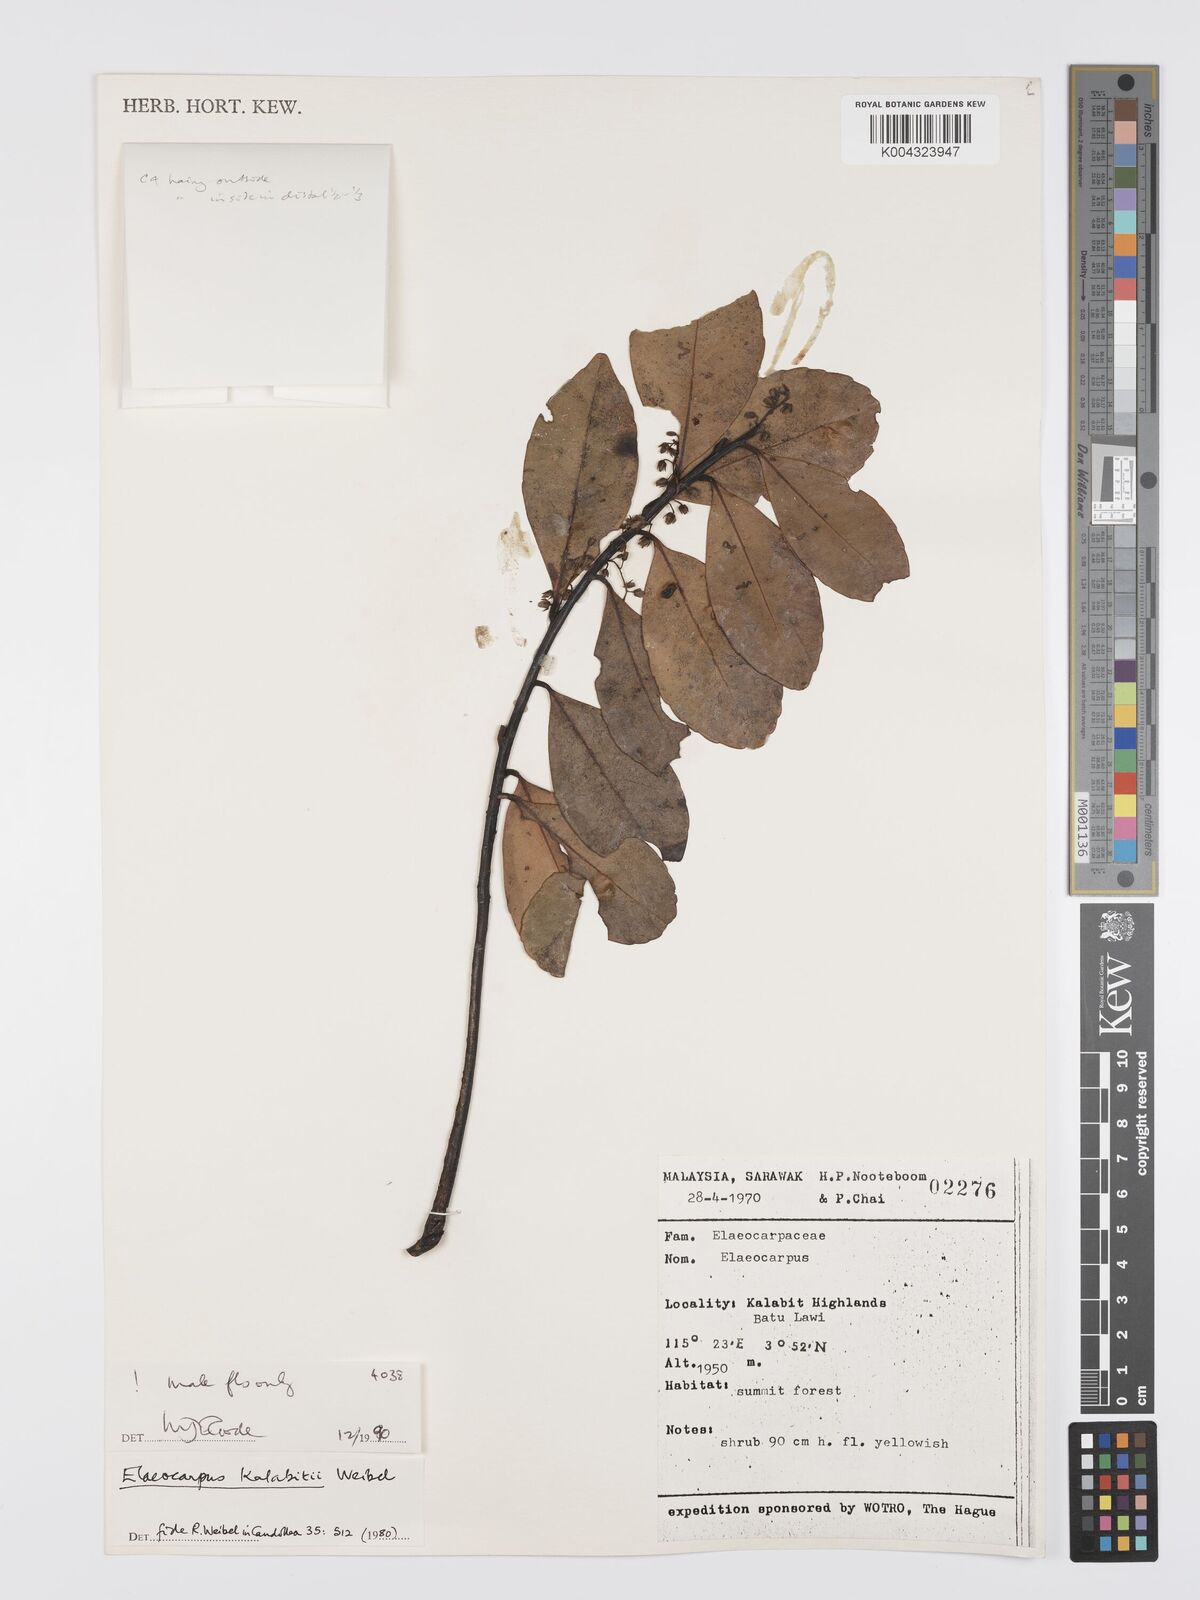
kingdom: Plantae
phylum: Tracheophyta
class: Magnoliopsida
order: Oxalidales
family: Elaeocarpaceae
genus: Elaeocarpus
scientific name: Elaeocarpus kalabitii
